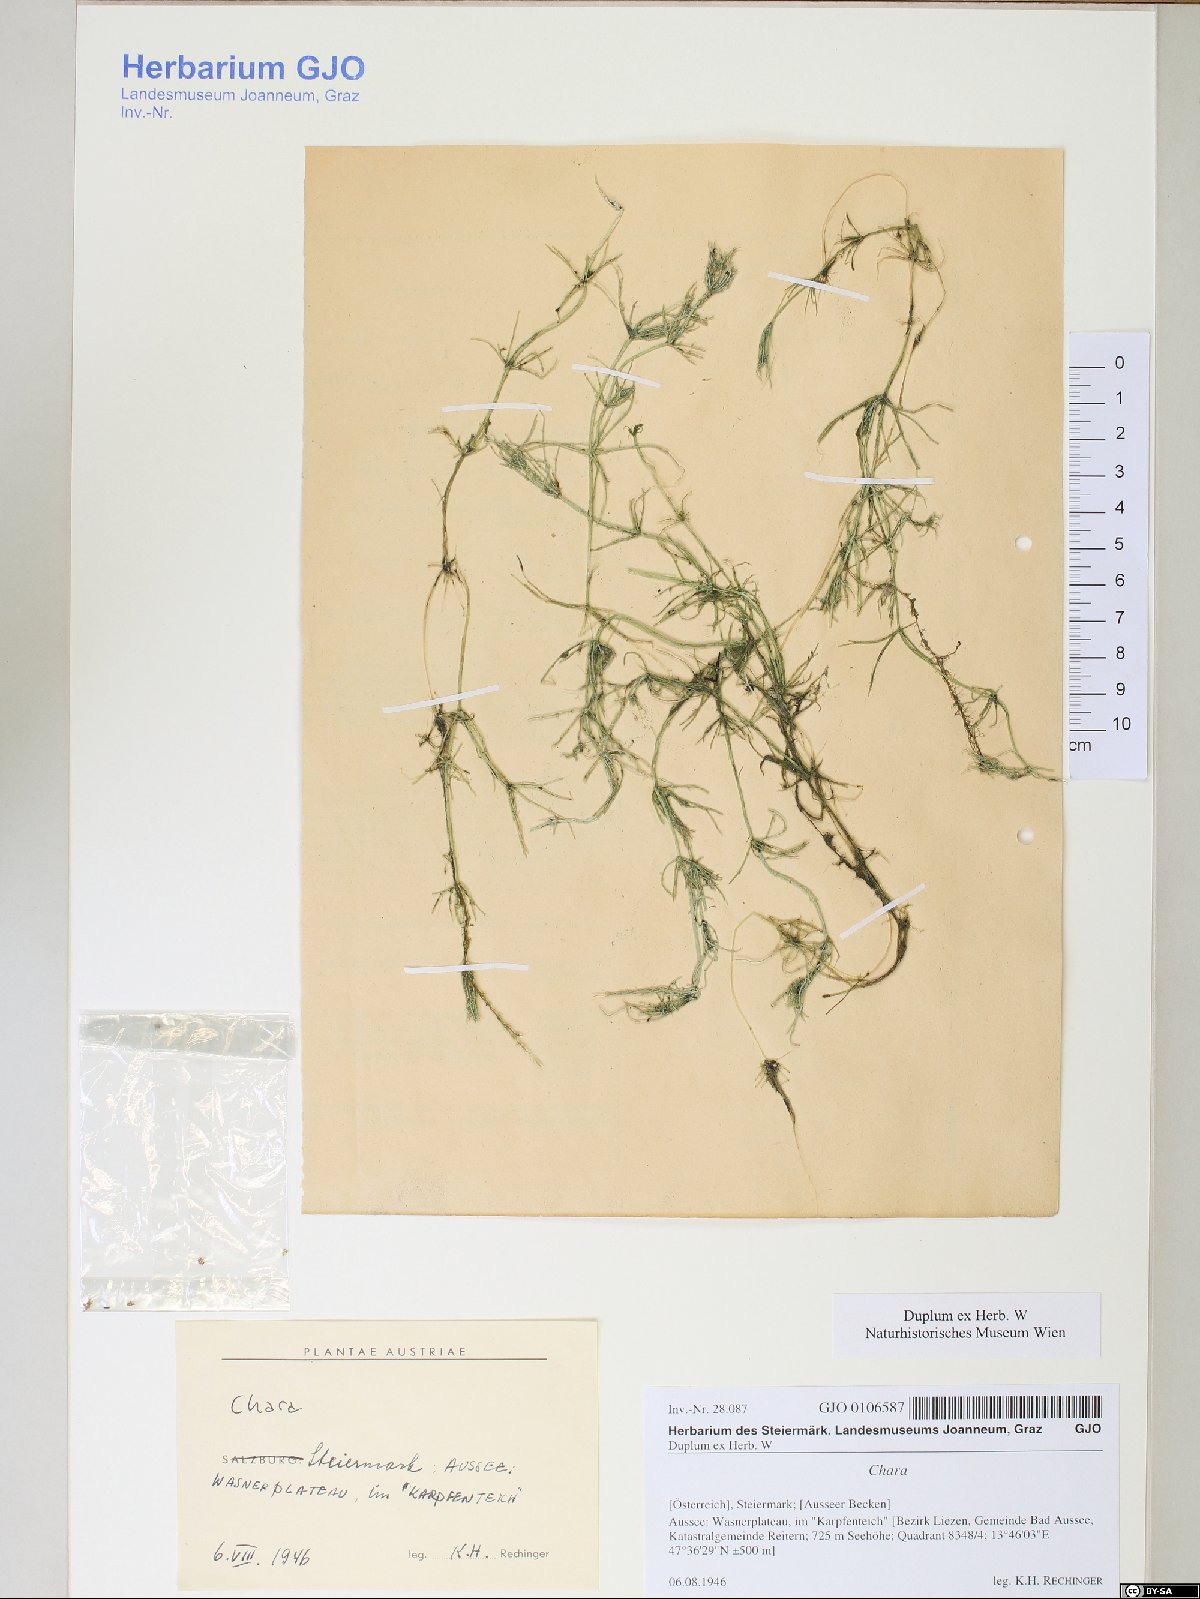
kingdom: Plantae
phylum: Charophyta
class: Charophyceae
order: Charales
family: Characeae
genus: Chara
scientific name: Chara
